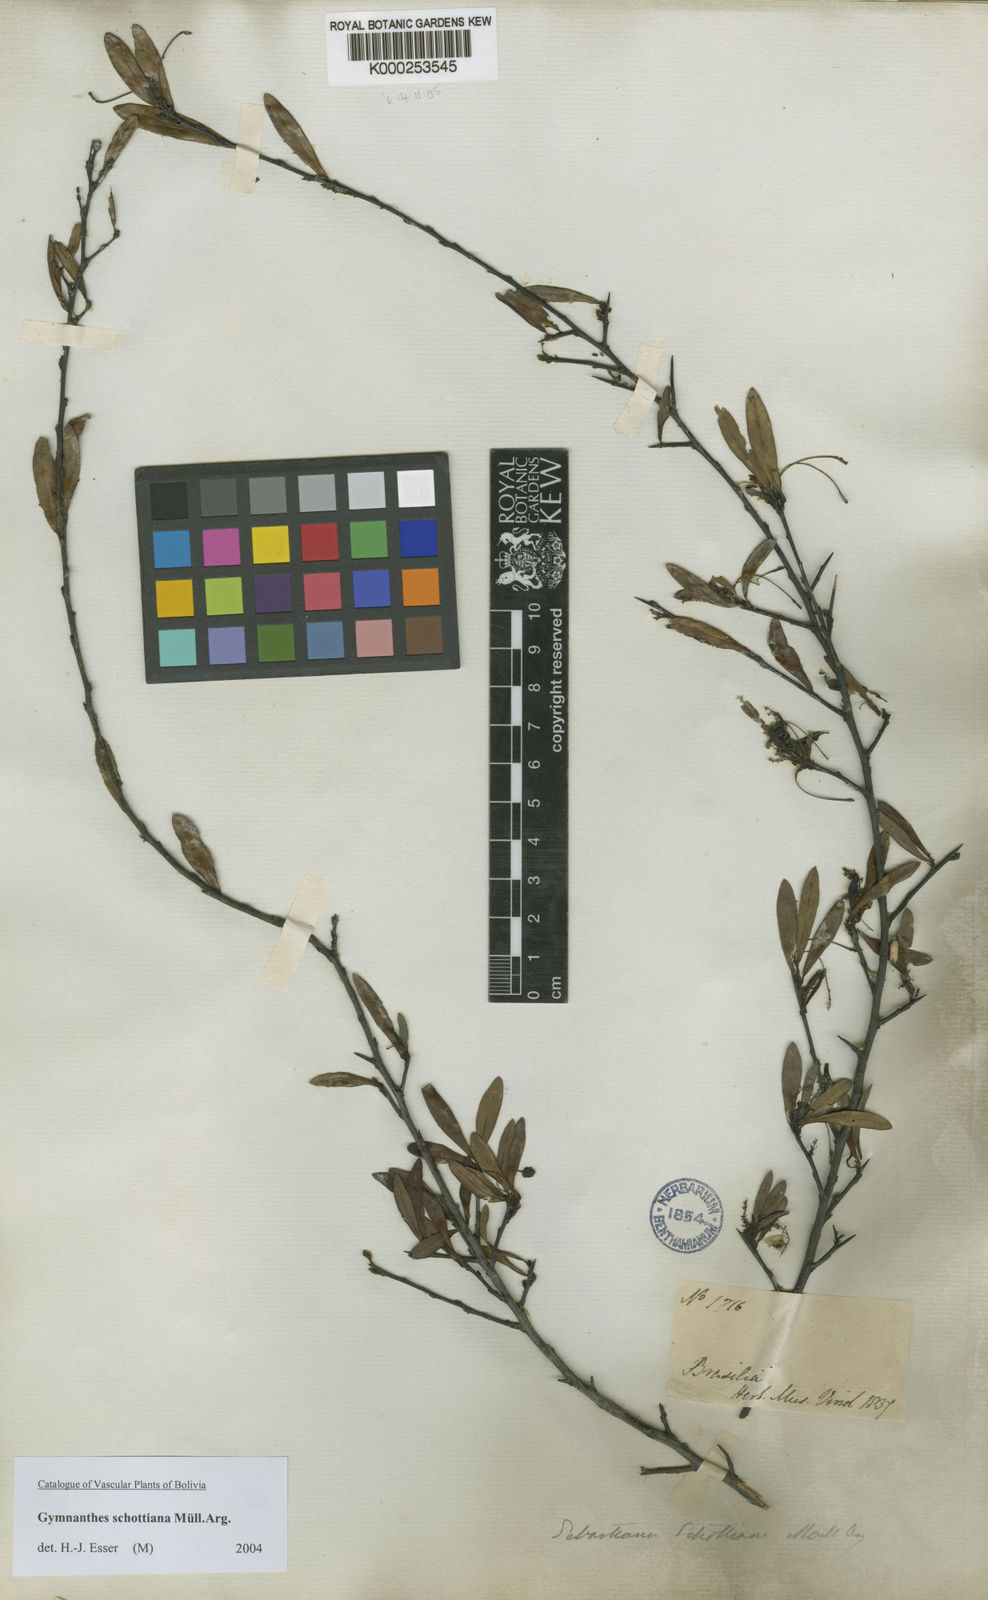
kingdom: Plantae
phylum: Tracheophyta
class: Magnoliopsida
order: Malpighiales
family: Euphorbiaceae
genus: Gymnanthes
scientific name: Gymnanthes
